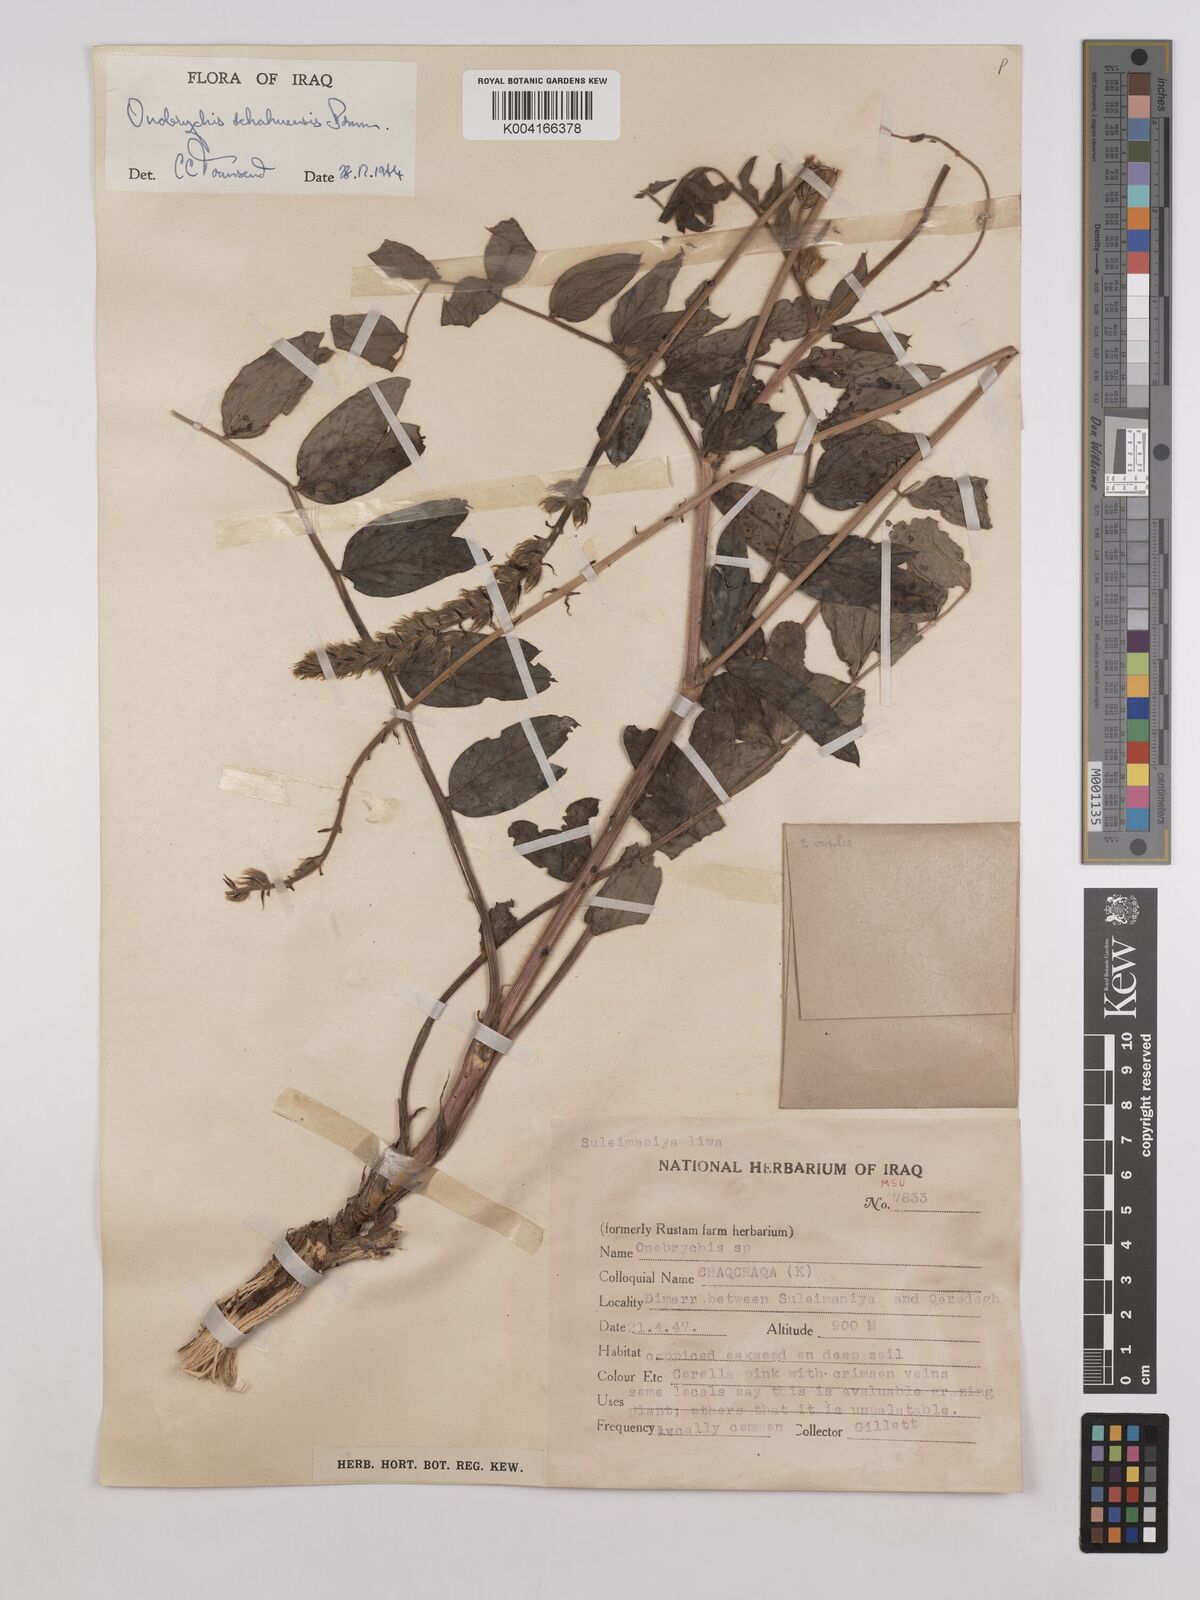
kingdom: Plantae
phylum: Tracheophyta
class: Magnoliopsida
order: Fabales
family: Fabaceae
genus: Onobrychis
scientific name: Onobrychis schahuensis
